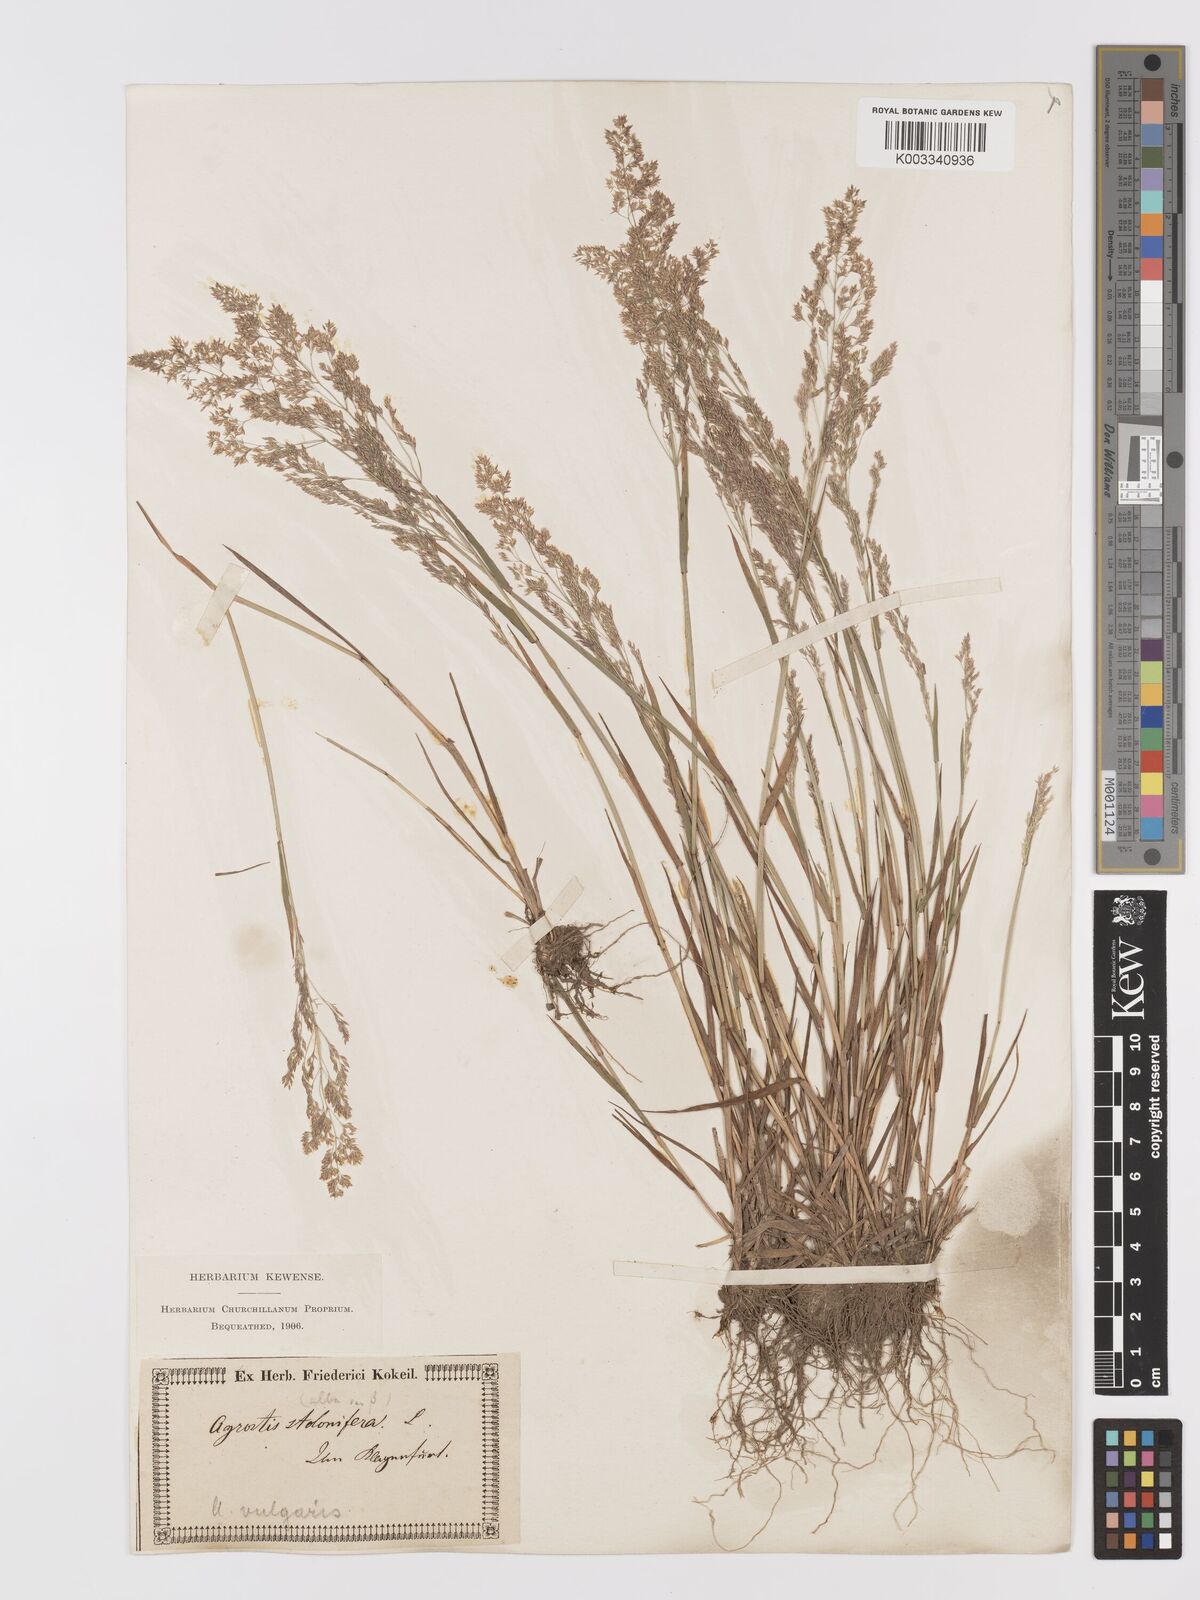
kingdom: Plantae
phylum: Tracheophyta
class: Liliopsida
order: Poales
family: Poaceae
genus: Agrostis
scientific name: Agrostis capillaris
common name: Colonial bentgrass
